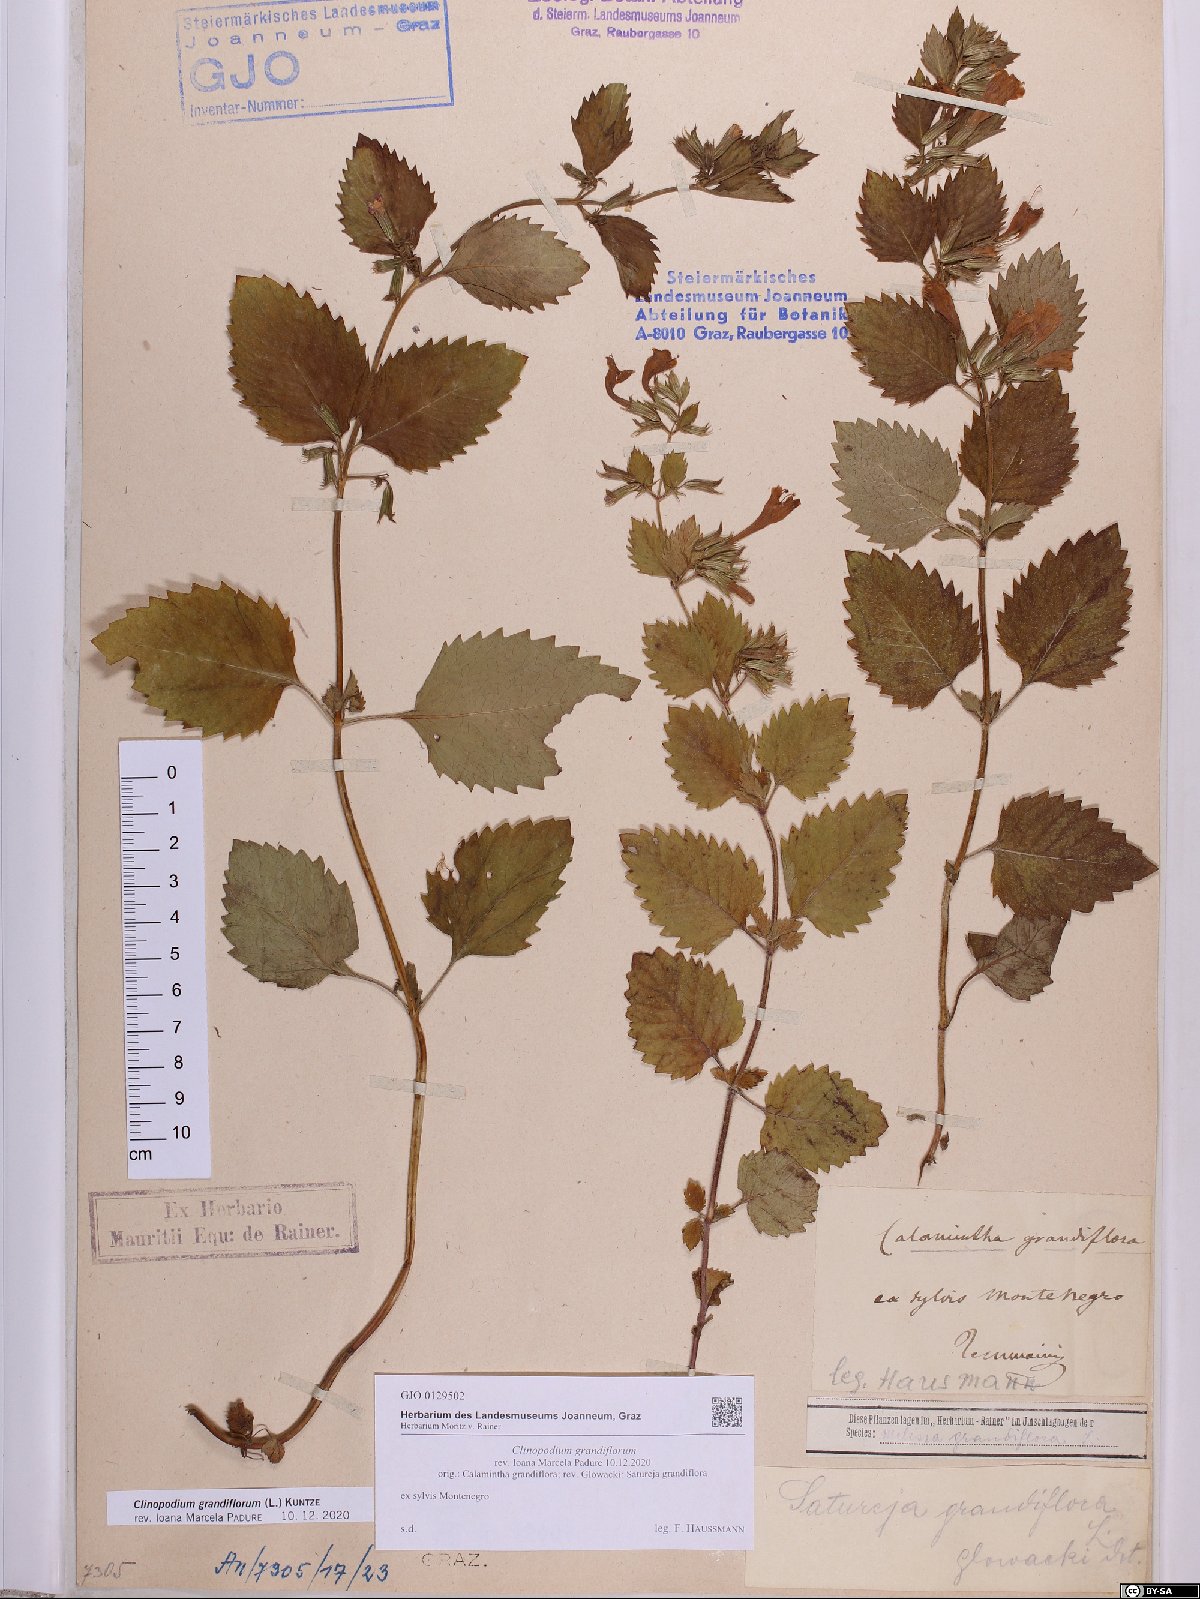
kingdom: Plantae
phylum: Tracheophyta
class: Magnoliopsida
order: Lamiales
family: Lamiaceae
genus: Clinopodium
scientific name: Clinopodium grandiflorum
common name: Greater calamint
